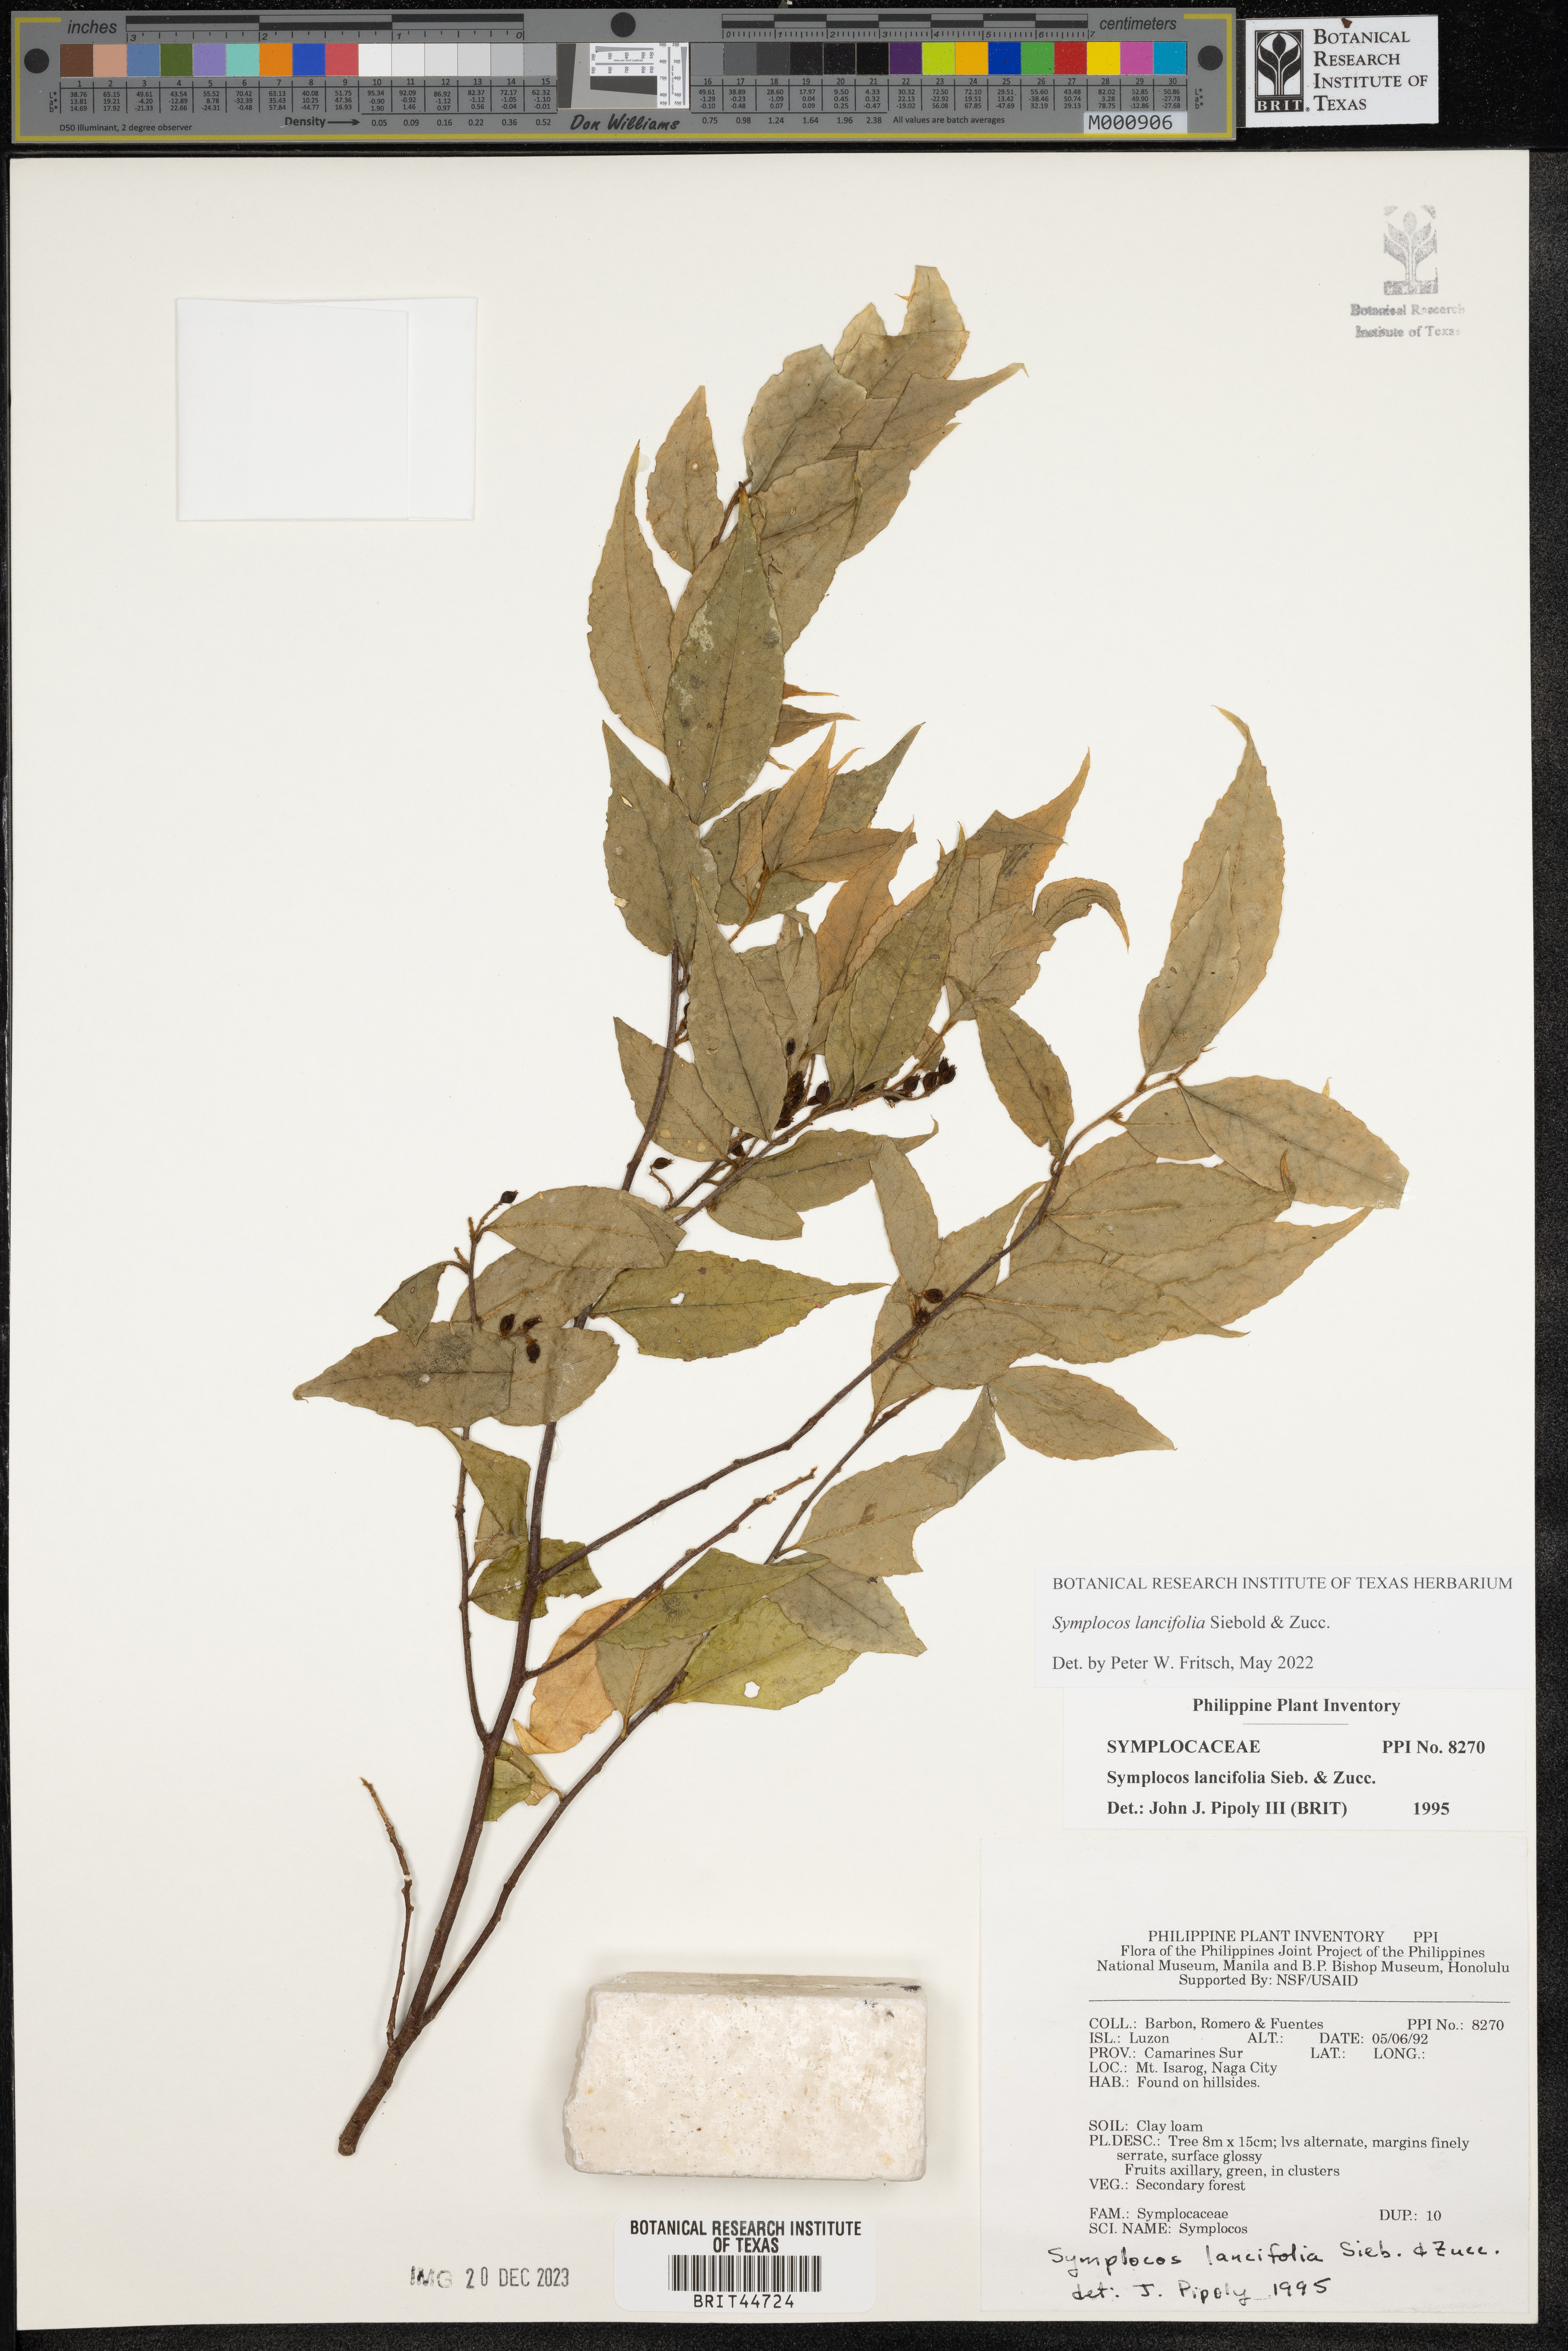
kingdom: Plantae
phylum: Tracheophyta
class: Magnoliopsida
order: Ericales
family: Symplocaceae
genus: Symplocos
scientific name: Symplocos lancifolia
